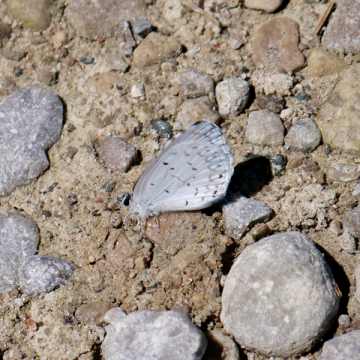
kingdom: Animalia
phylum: Arthropoda
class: Insecta
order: Lepidoptera
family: Lycaenidae
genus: Cyaniris
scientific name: Cyaniris neglecta
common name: Summer Azure
